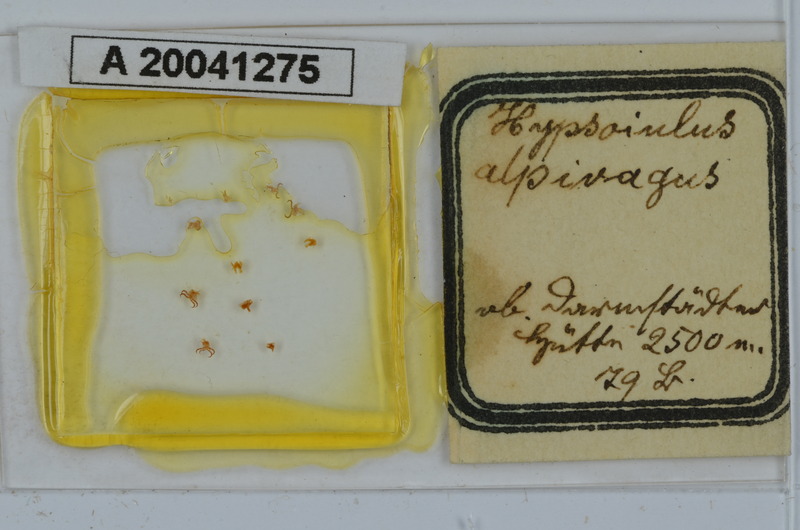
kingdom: Animalia
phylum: Arthropoda
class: Diplopoda
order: Julida
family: Julidae
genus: Hypsoiulus
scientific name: Hypsoiulus alpivagus
